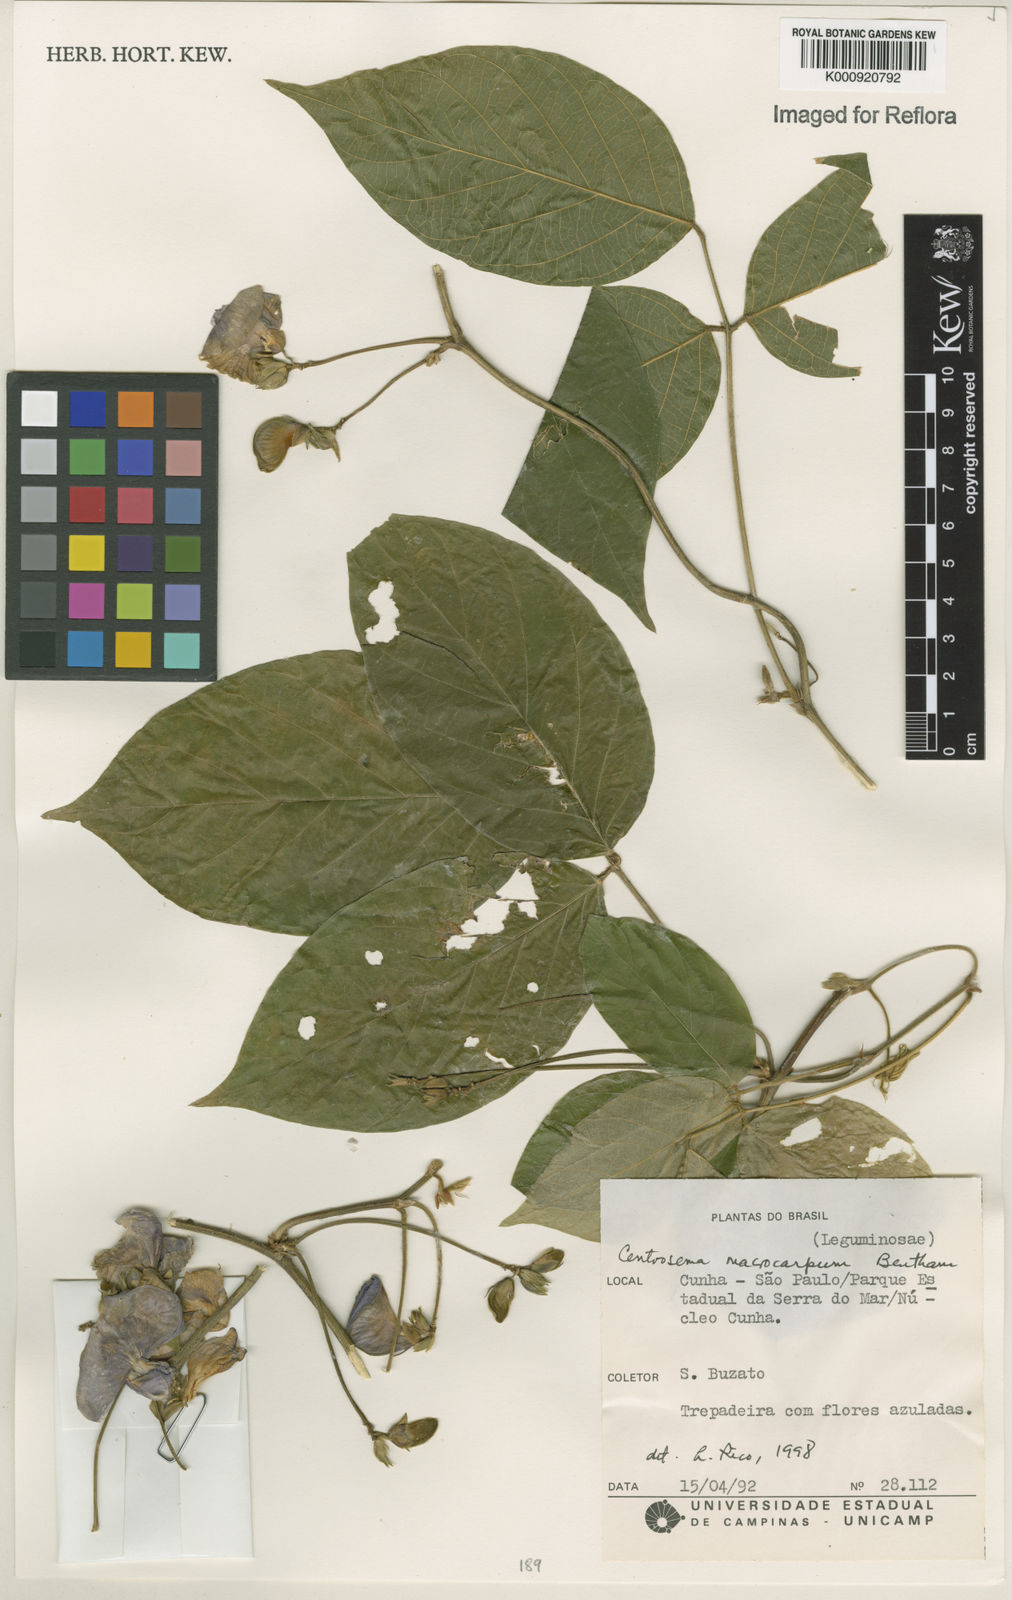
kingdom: Plantae
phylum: Tracheophyta
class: Magnoliopsida
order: Fabales
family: Fabaceae
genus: Centrosema
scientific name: Centrosema macrocarpum
